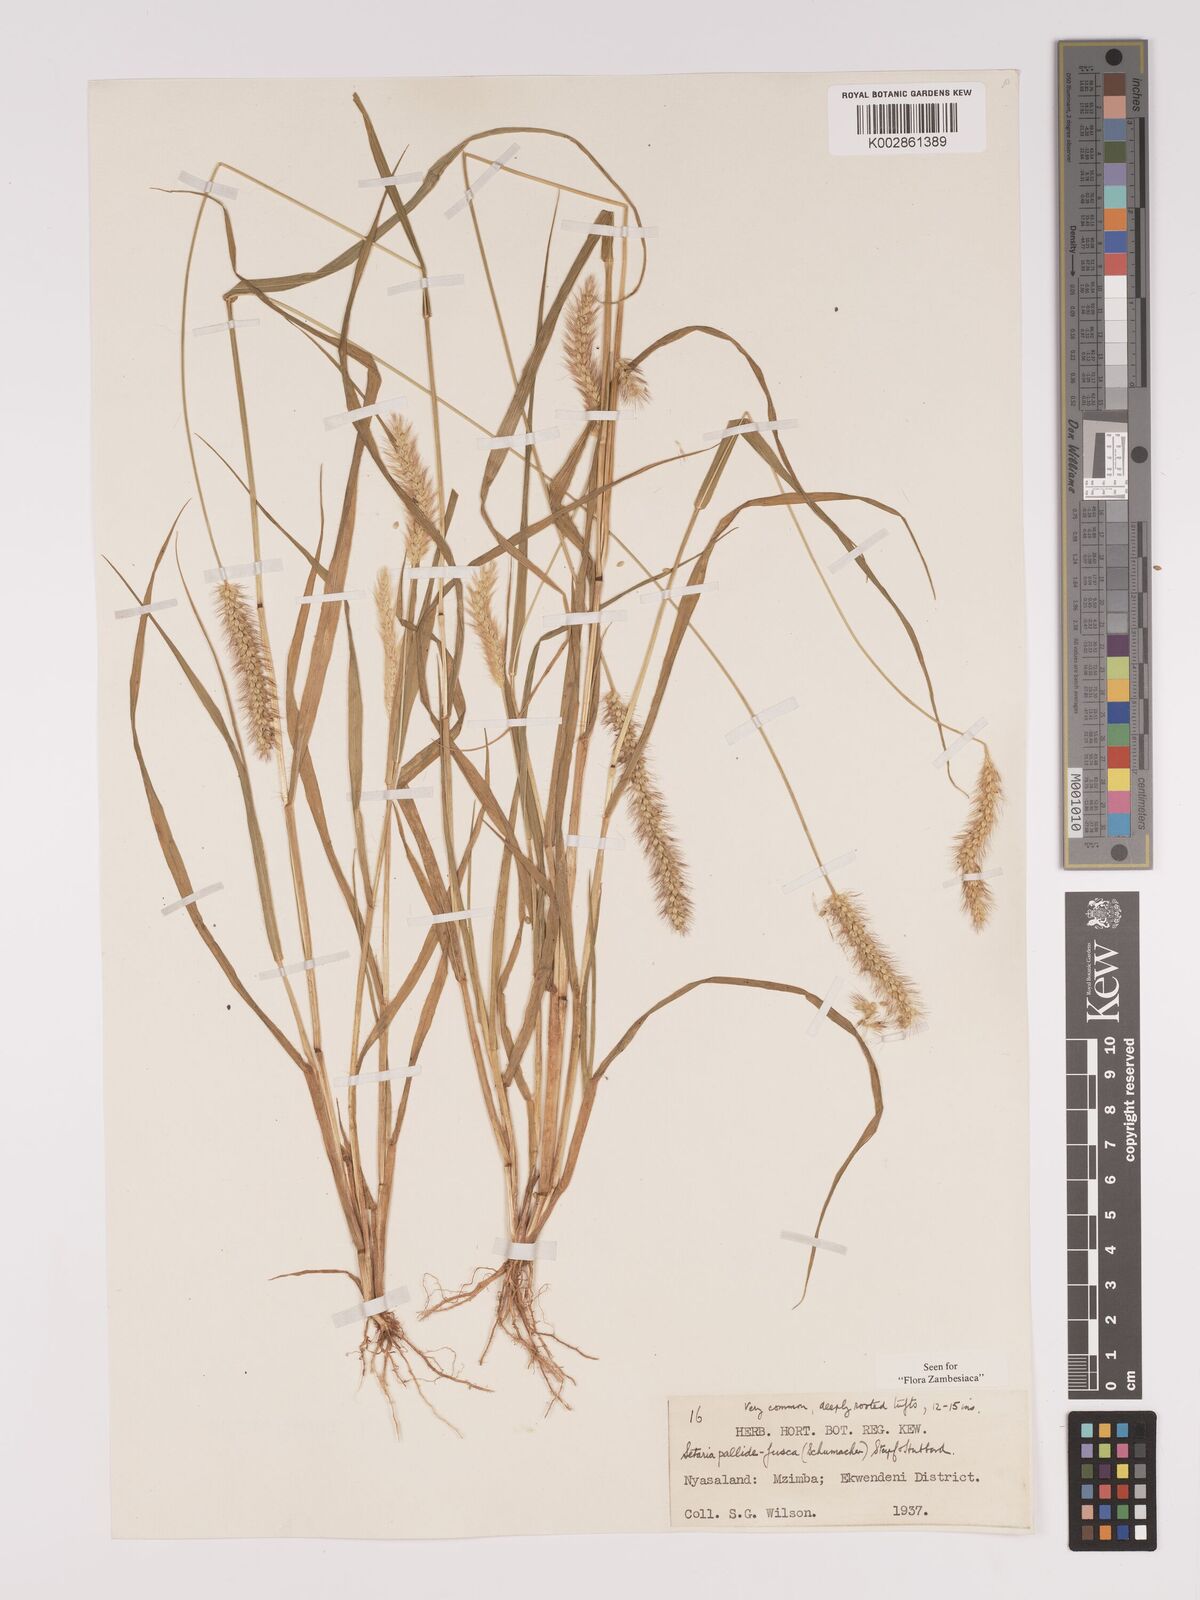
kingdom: Plantae
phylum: Tracheophyta
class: Liliopsida
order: Poales
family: Poaceae
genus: Setaria
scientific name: Setaria pumila
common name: Yellow bristle-grass
